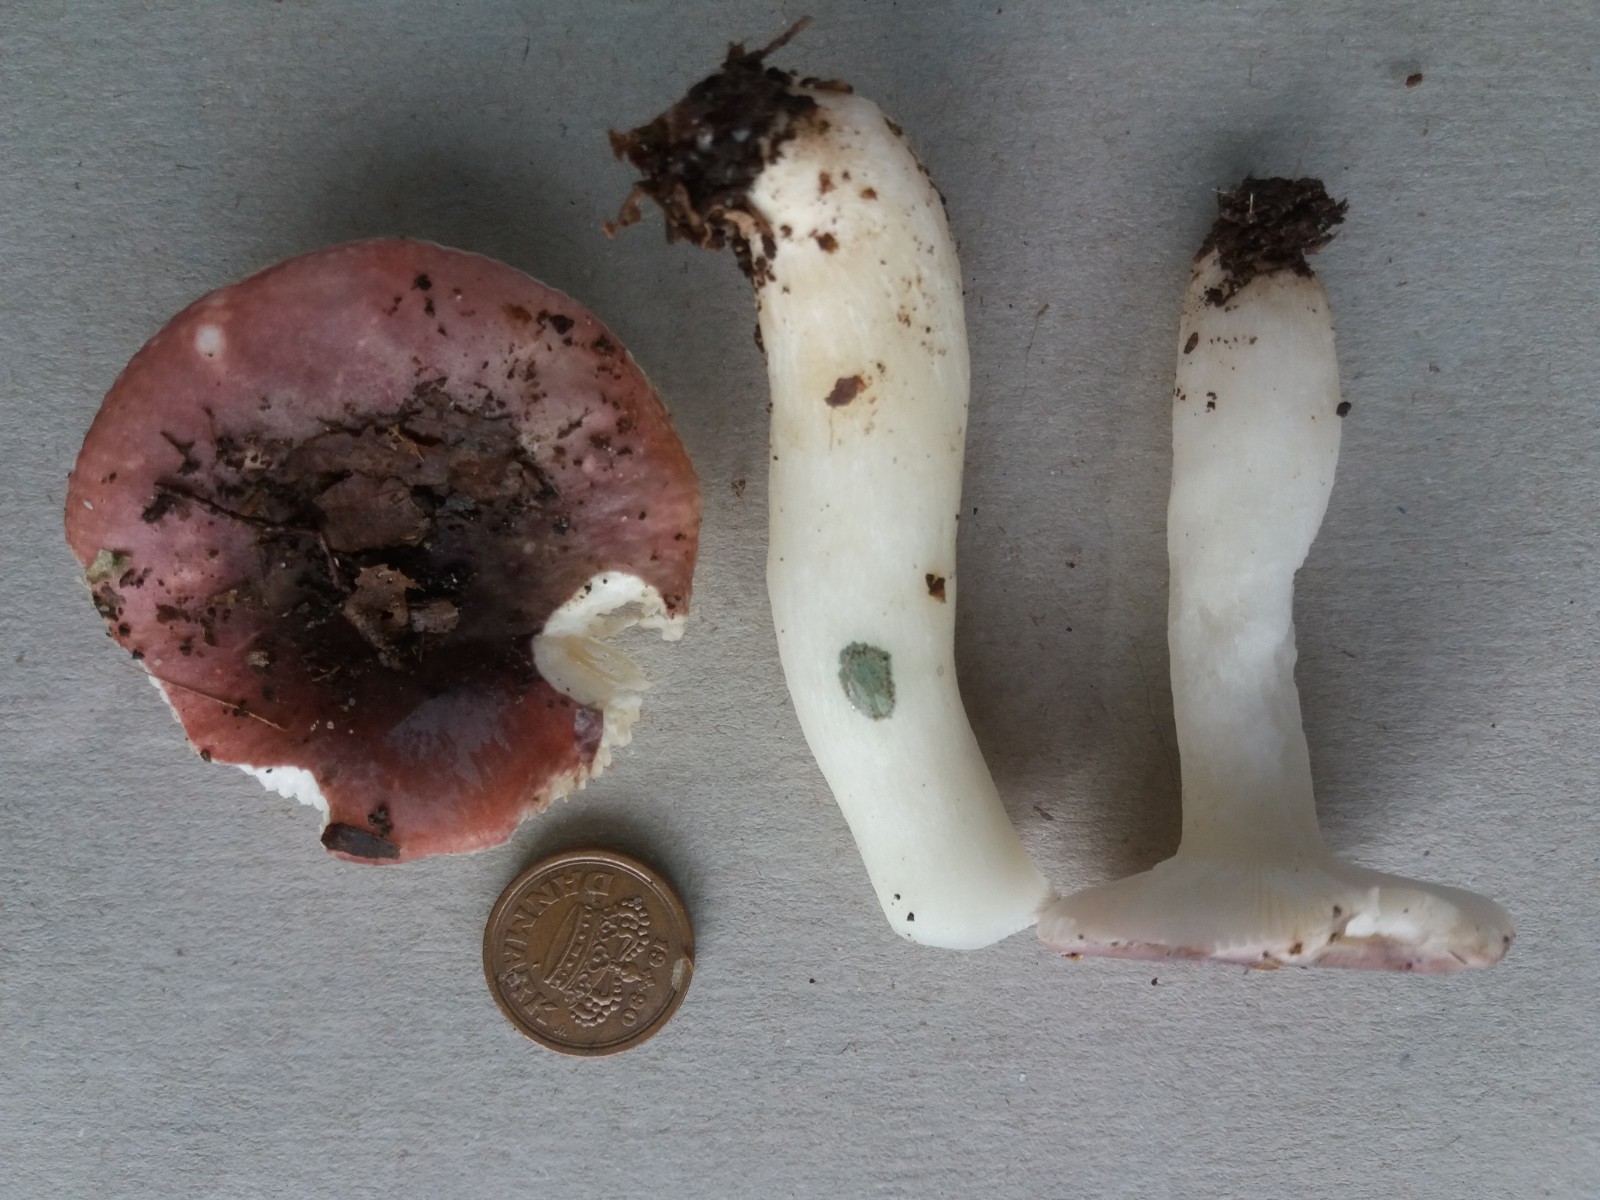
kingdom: Fungi
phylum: Basidiomycota
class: Agaricomycetes
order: Russulales
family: Russulaceae
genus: Russula
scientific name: Russula fragilis
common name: savbladet skørhat
